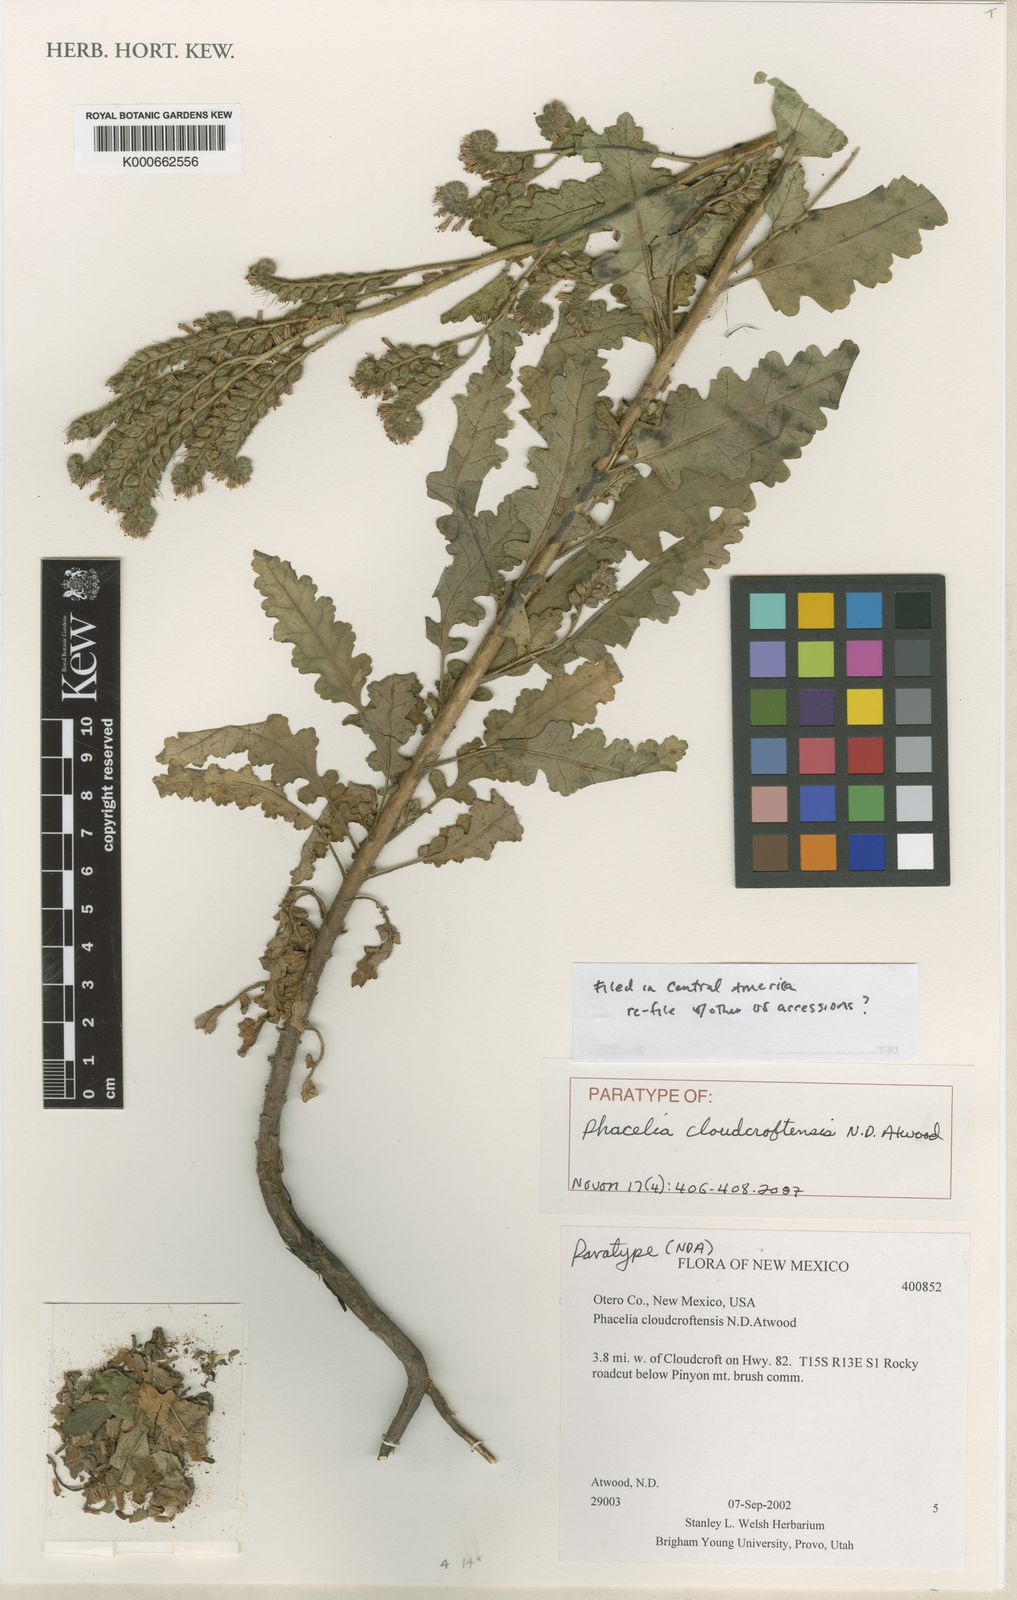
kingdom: Plantae
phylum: Tracheophyta
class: Magnoliopsida
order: Boraginales
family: Hydrophyllaceae
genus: Phacelia
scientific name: Phacelia cloudcroftensis
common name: Cloudcroft phacelia
